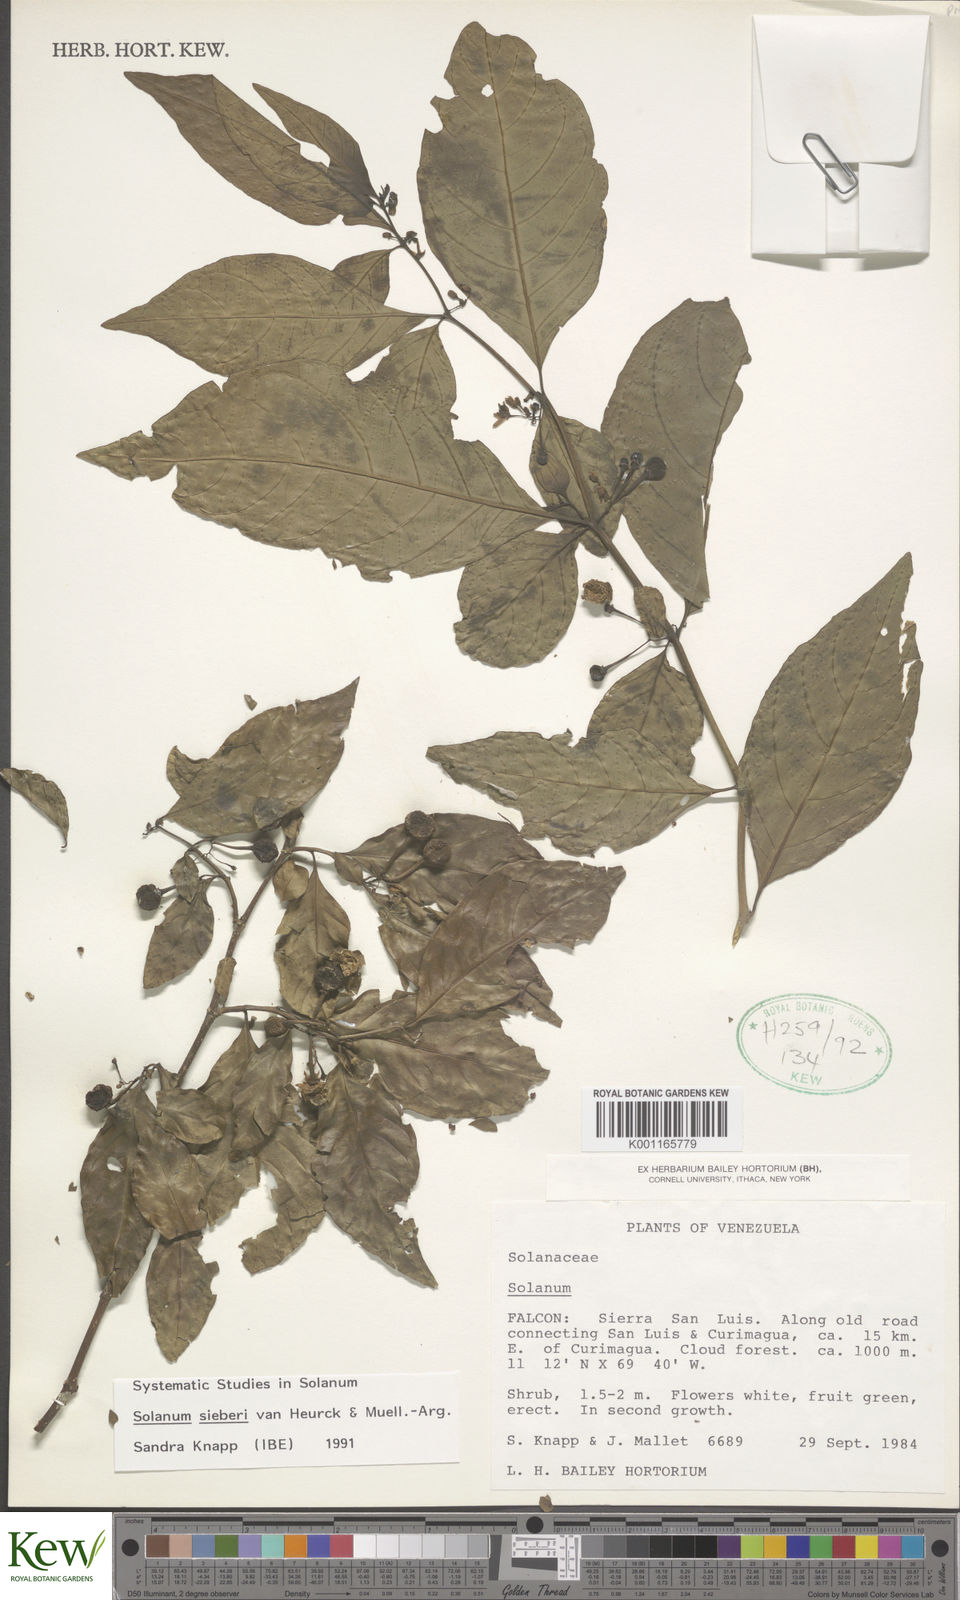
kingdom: Plantae
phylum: Tracheophyta
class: Magnoliopsida
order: Solanales
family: Solanaceae
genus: Solanum
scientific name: Solanum sieberi
